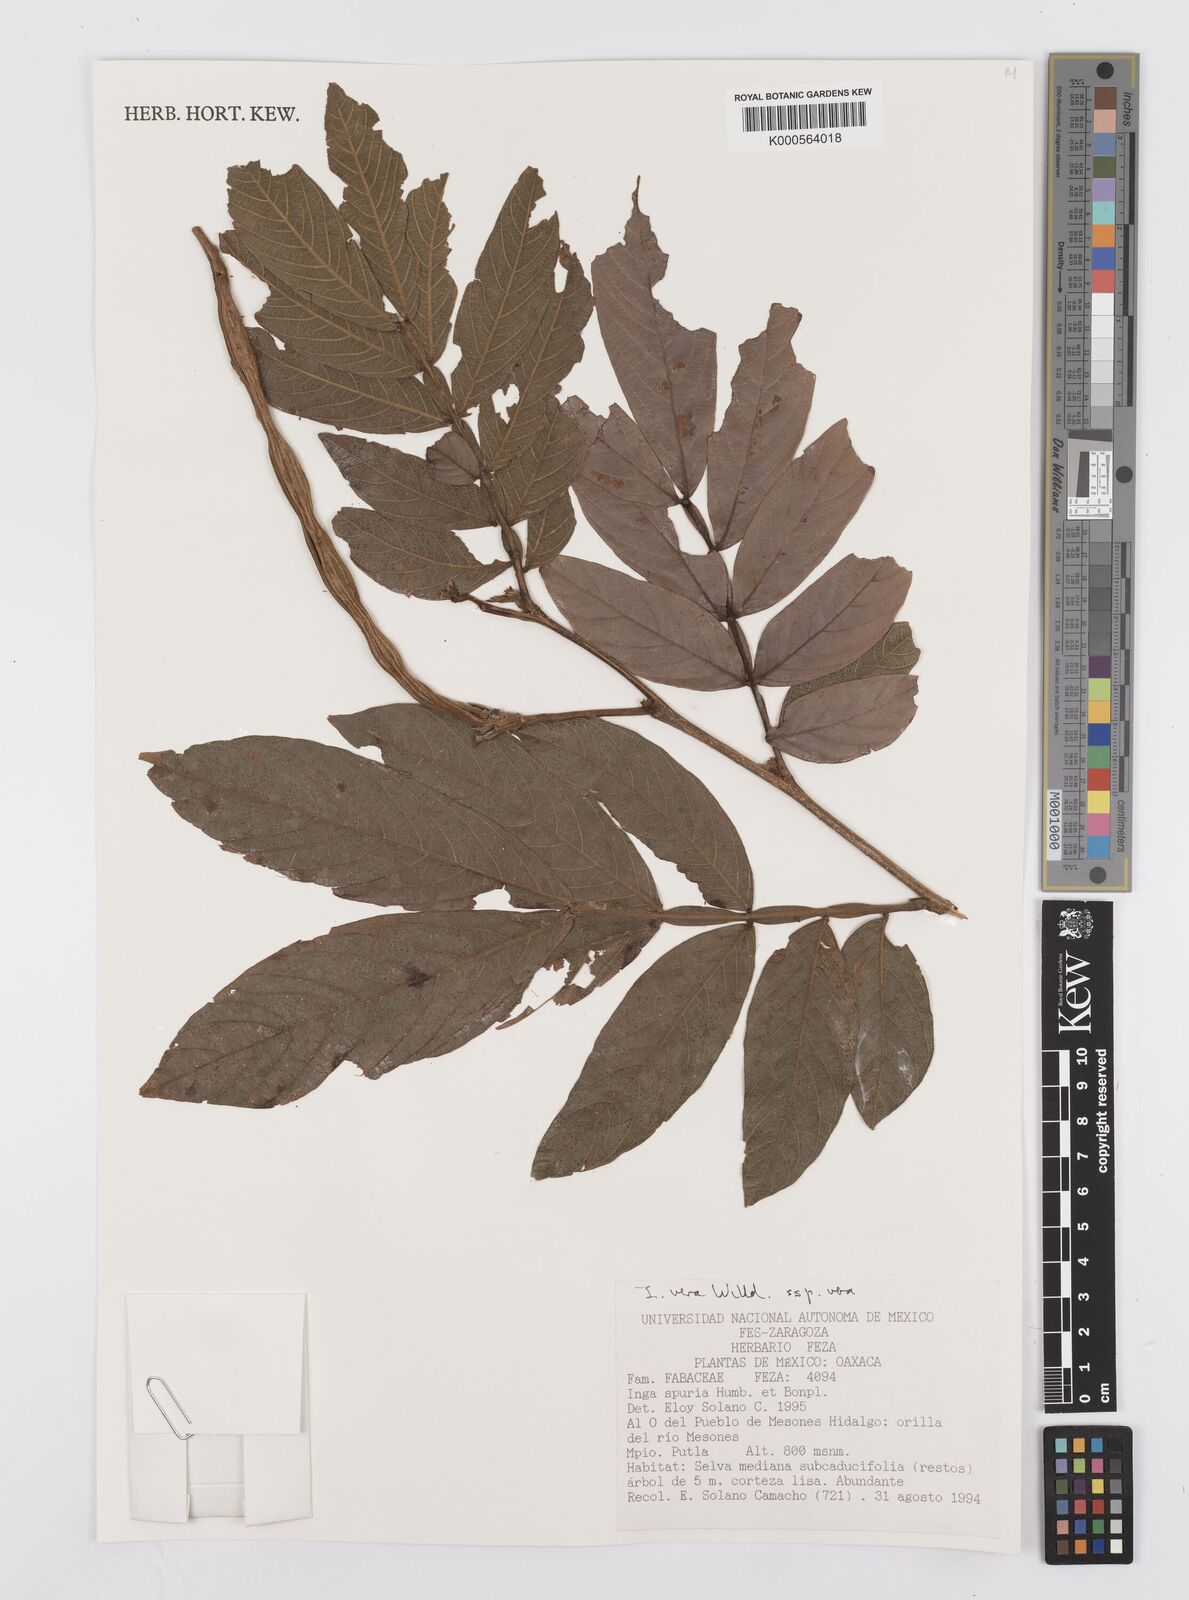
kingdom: Plantae
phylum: Tracheophyta
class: Magnoliopsida
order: Fabales
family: Fabaceae
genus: Inga
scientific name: Inga vera
